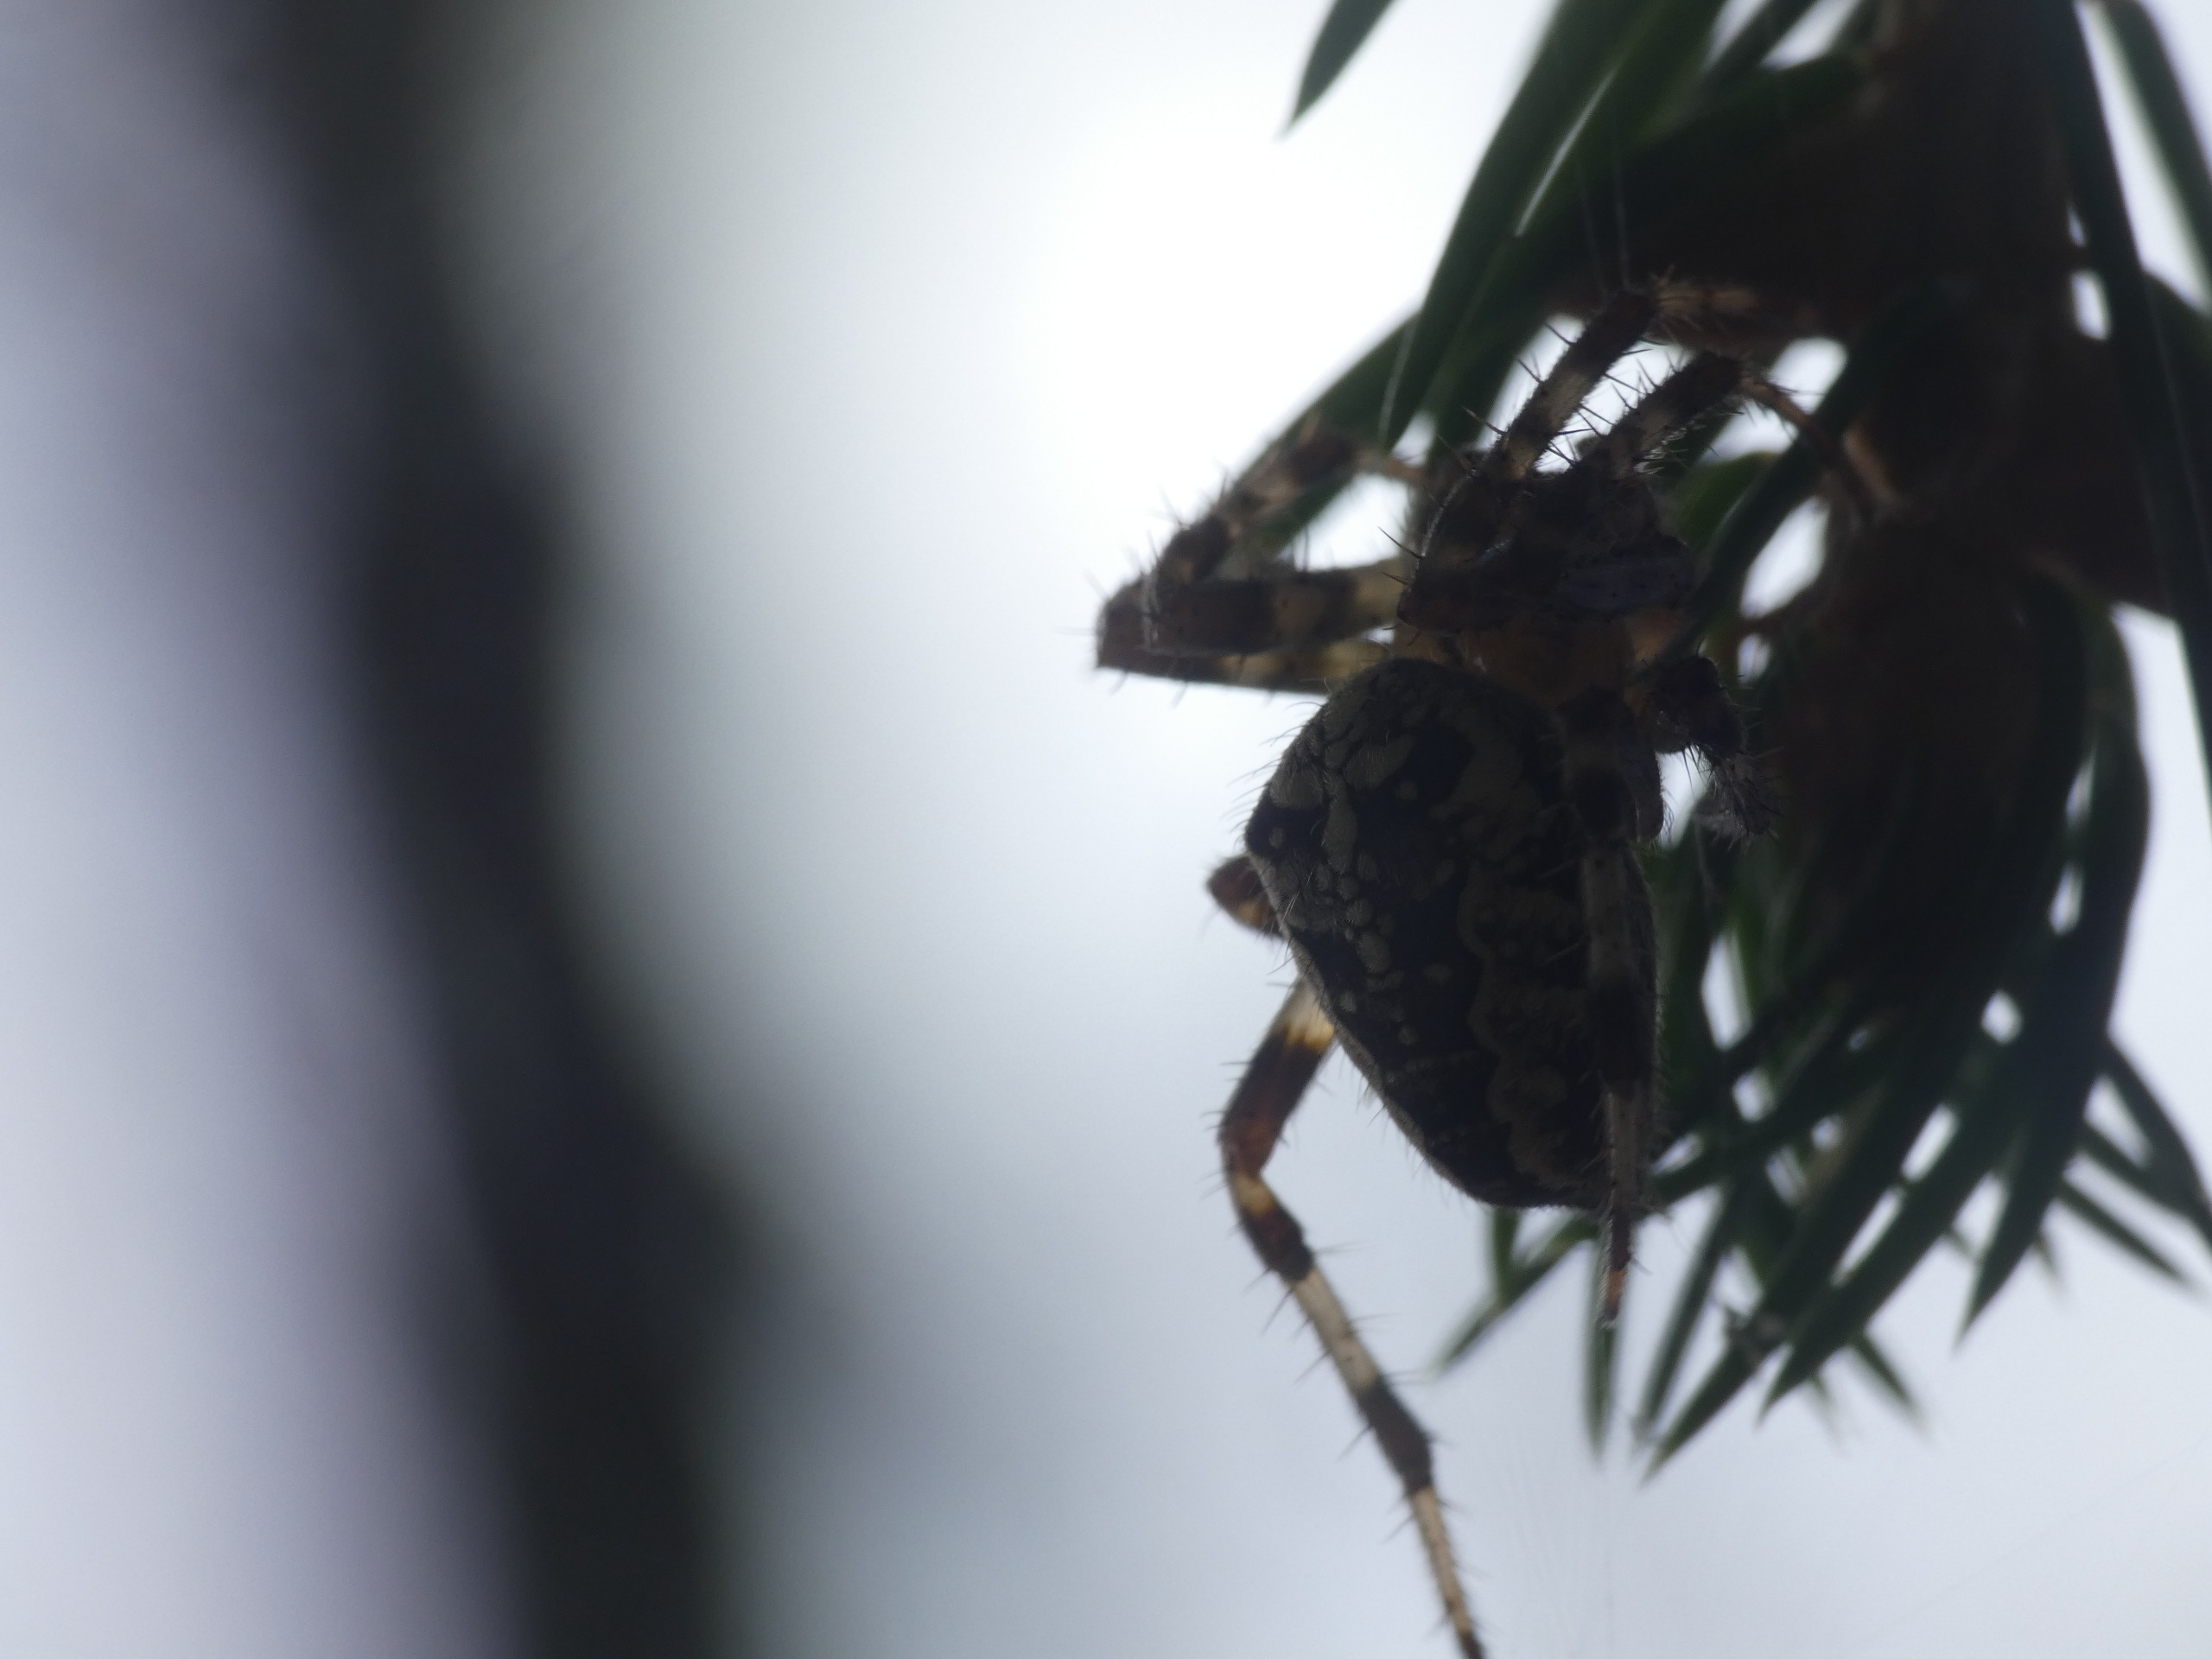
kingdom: Animalia
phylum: Arthropoda
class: Arachnida
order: Araneae
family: Araneidae
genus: Araneus
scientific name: Araneus diadematus
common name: Korsedderkop
